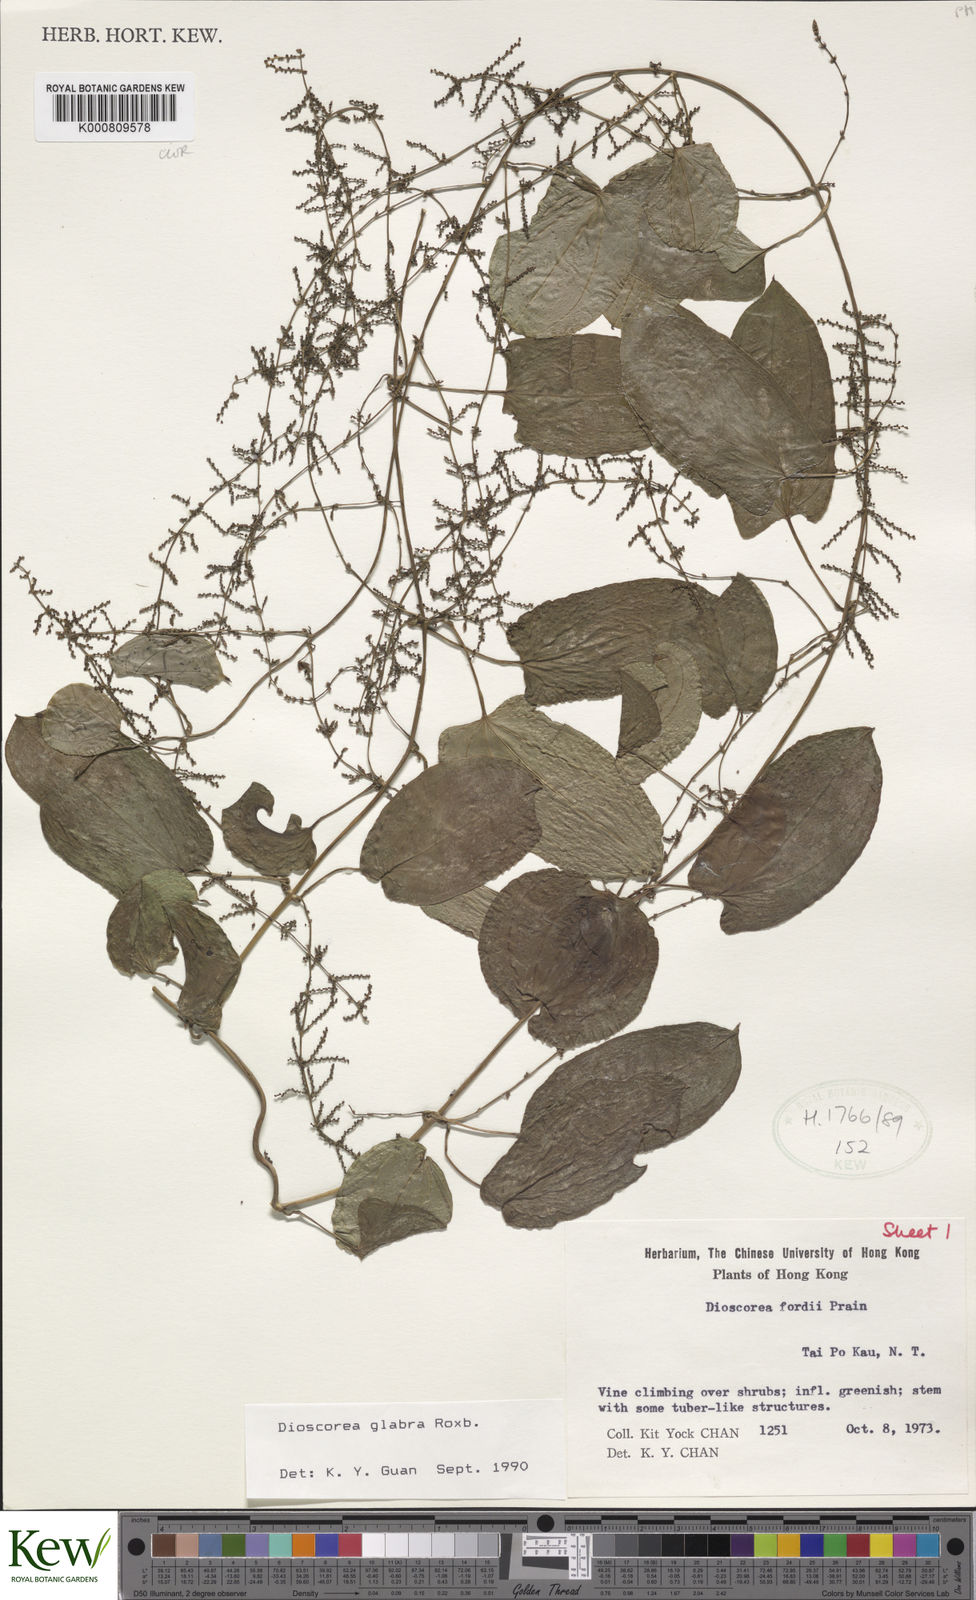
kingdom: Plantae
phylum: Tracheophyta
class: Liliopsida
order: Dioscoreales
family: Dioscoreaceae
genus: Dioscorea
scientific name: Dioscorea glabra
